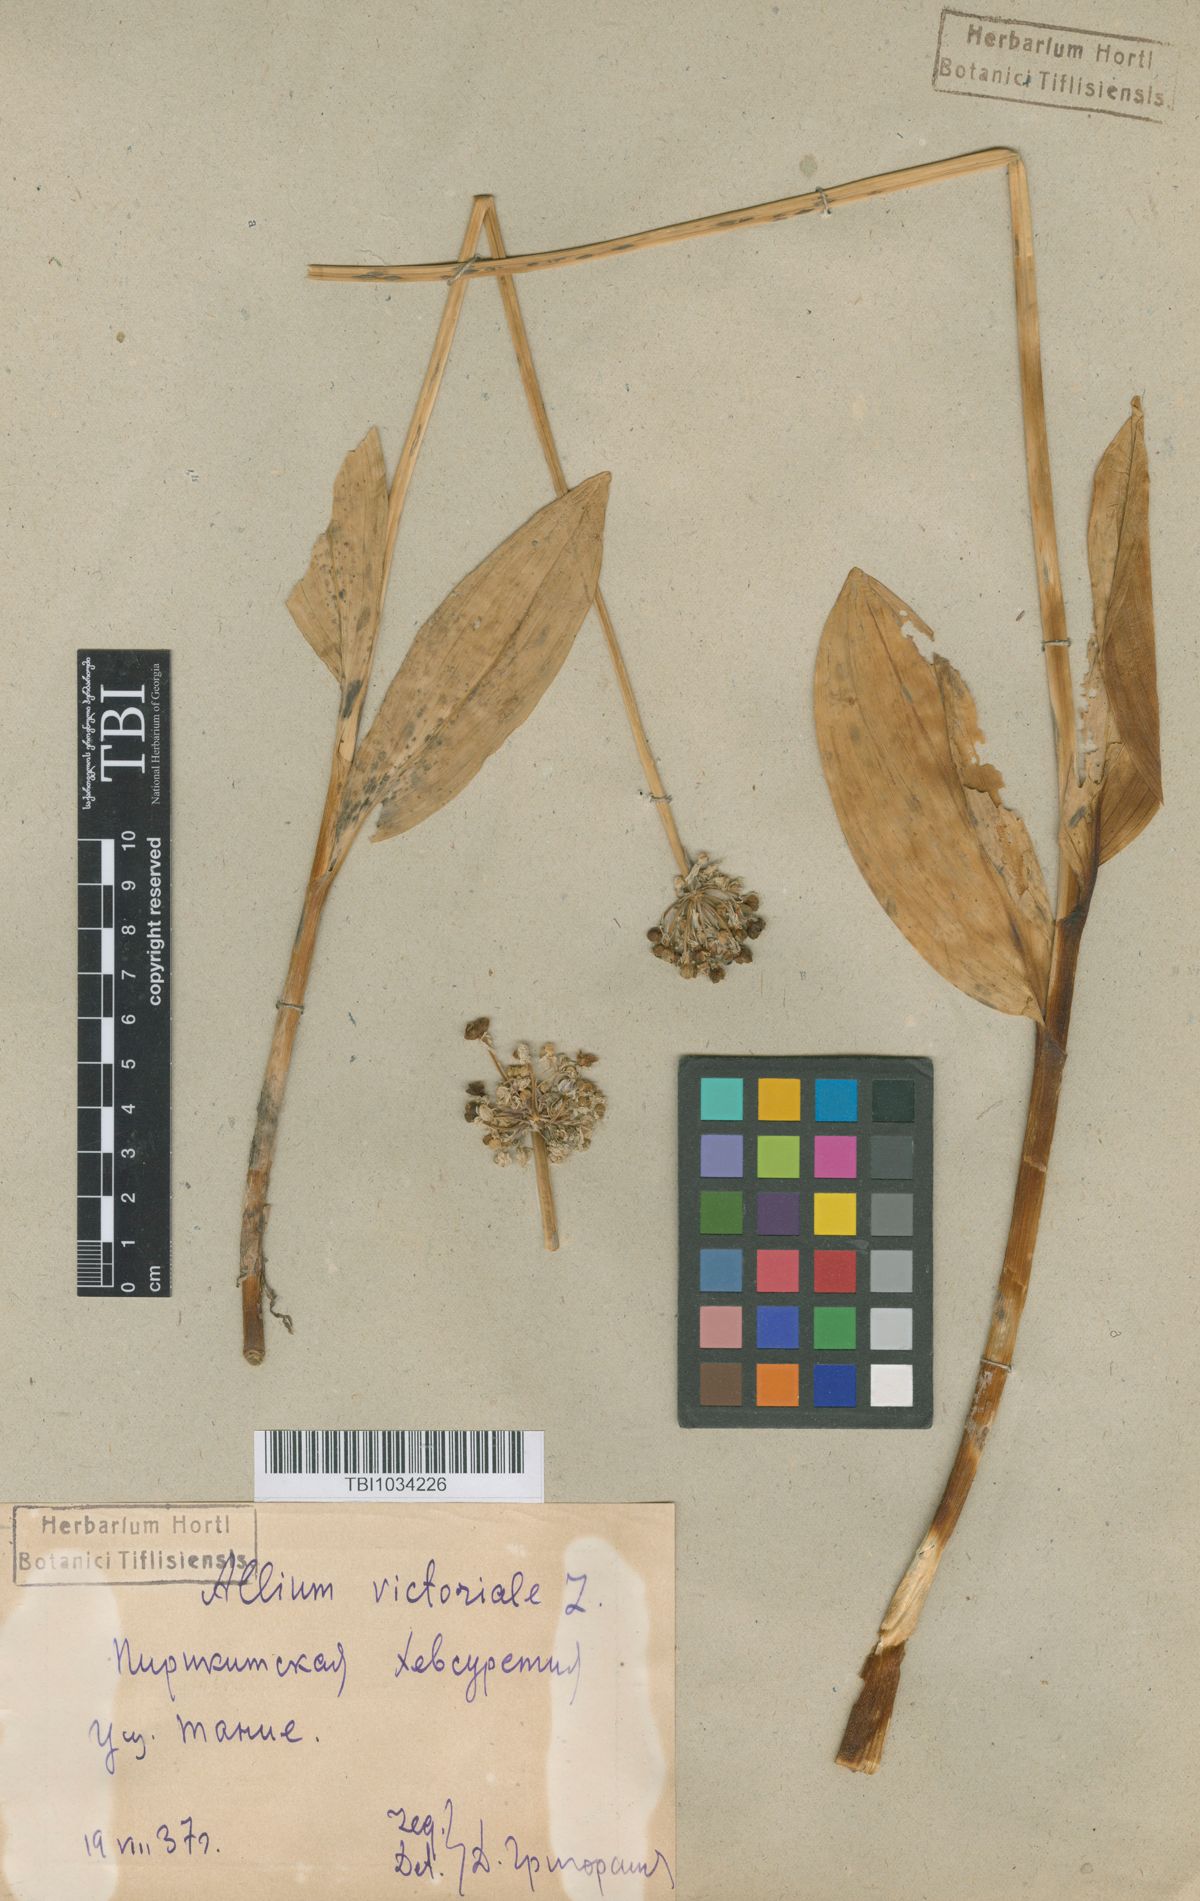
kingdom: Plantae
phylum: Tracheophyta
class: Liliopsida
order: Asparagales
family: Amaryllidaceae
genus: Allium
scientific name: Allium victorialis
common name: Alpine leek
